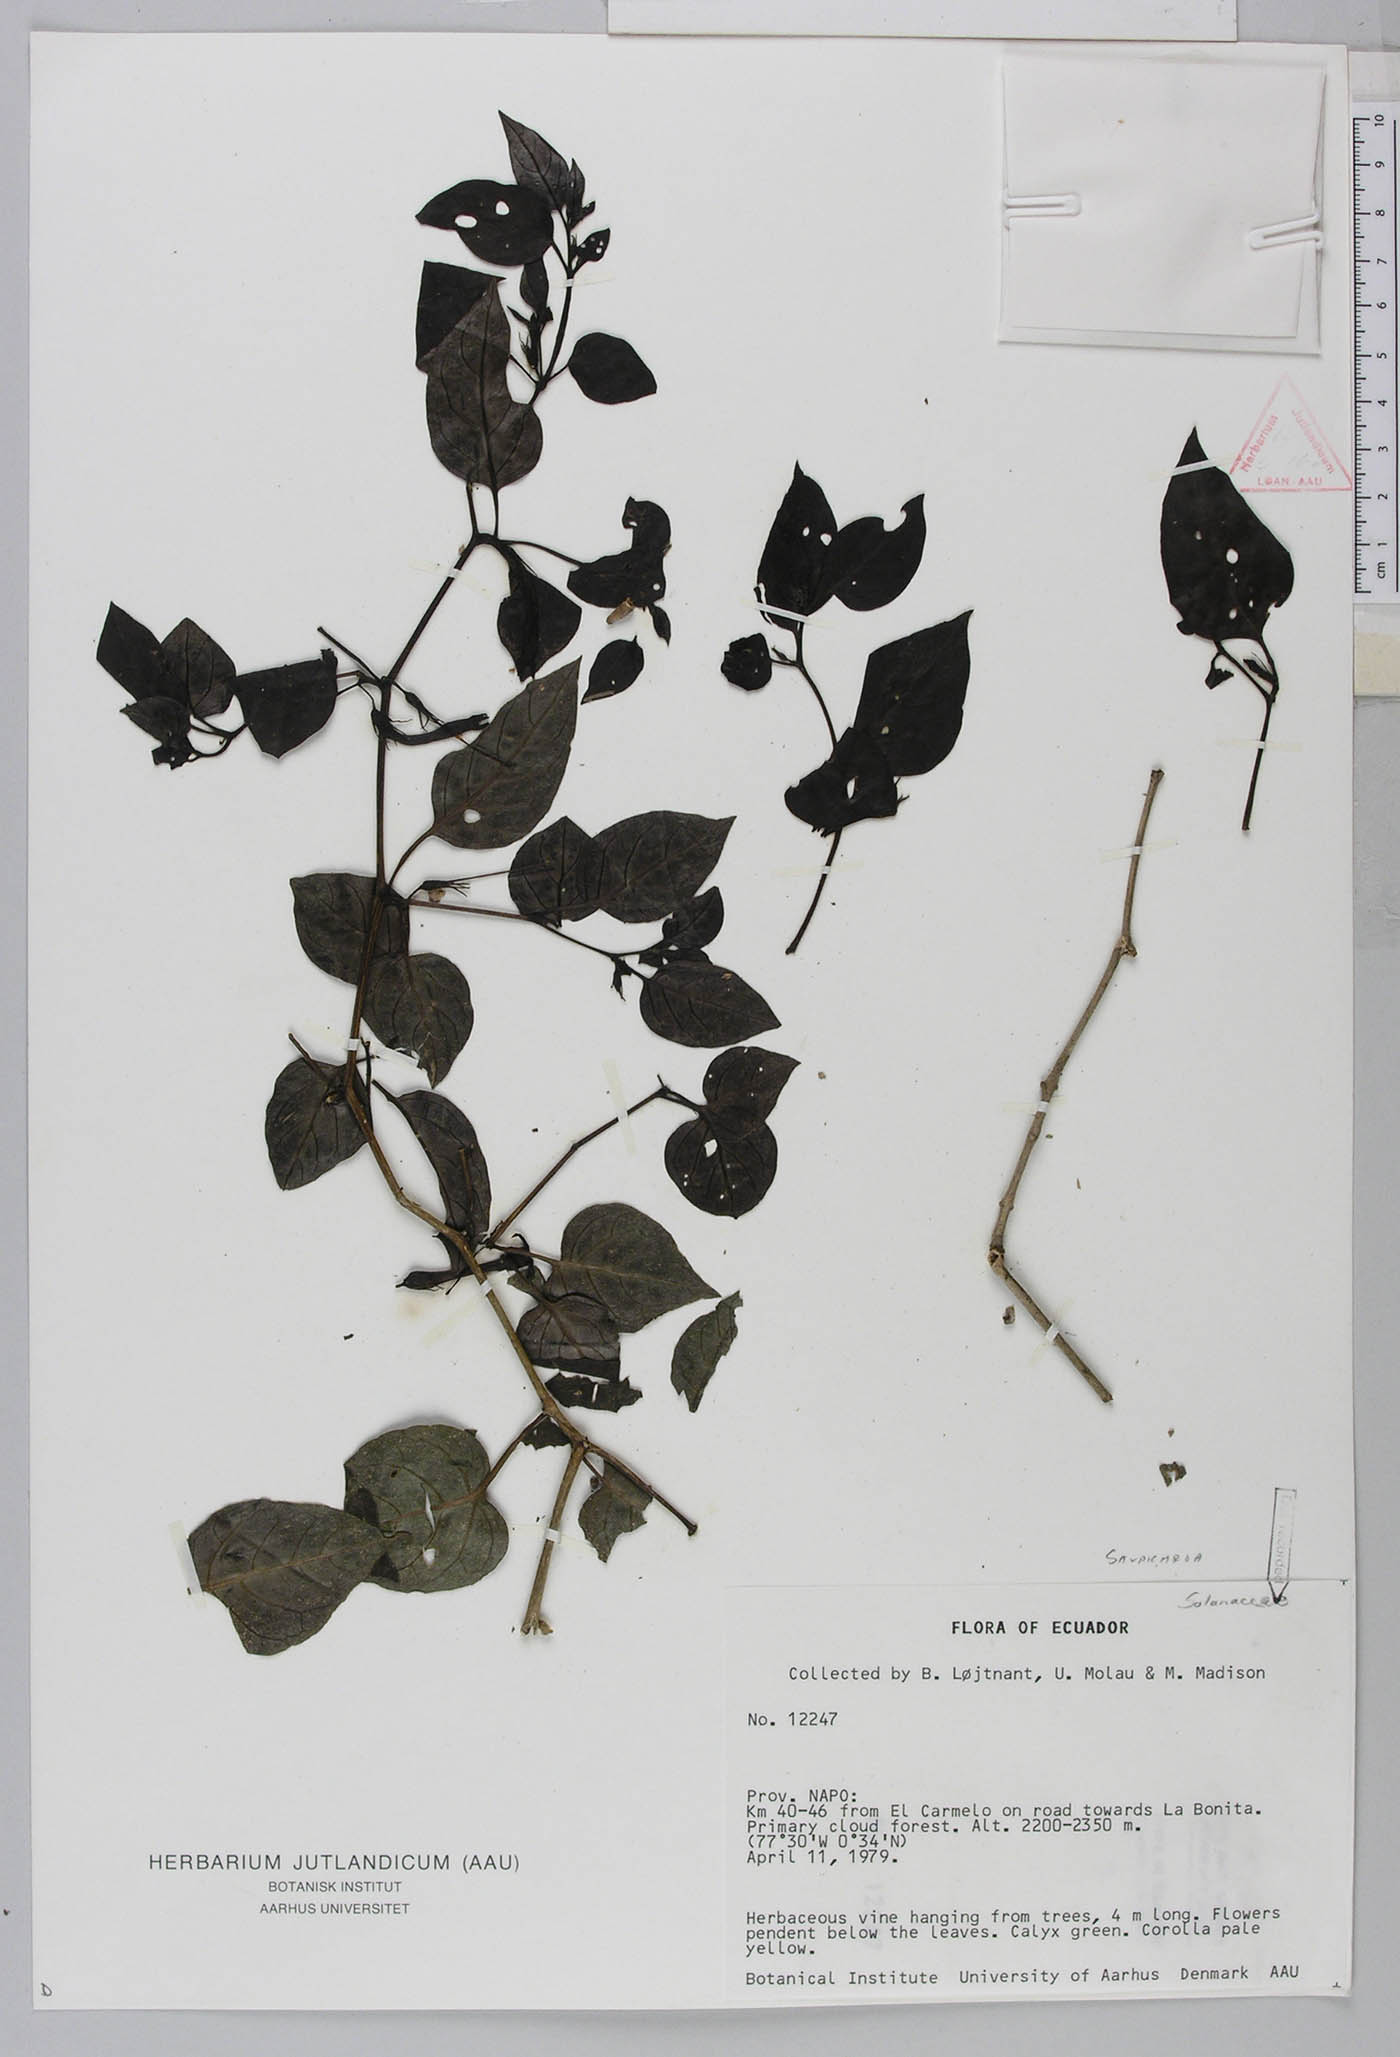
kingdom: Plantae
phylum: Tracheophyta
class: Magnoliopsida
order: Solanales
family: Solanaceae
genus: Salpichroa
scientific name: Salpichroa tristis
